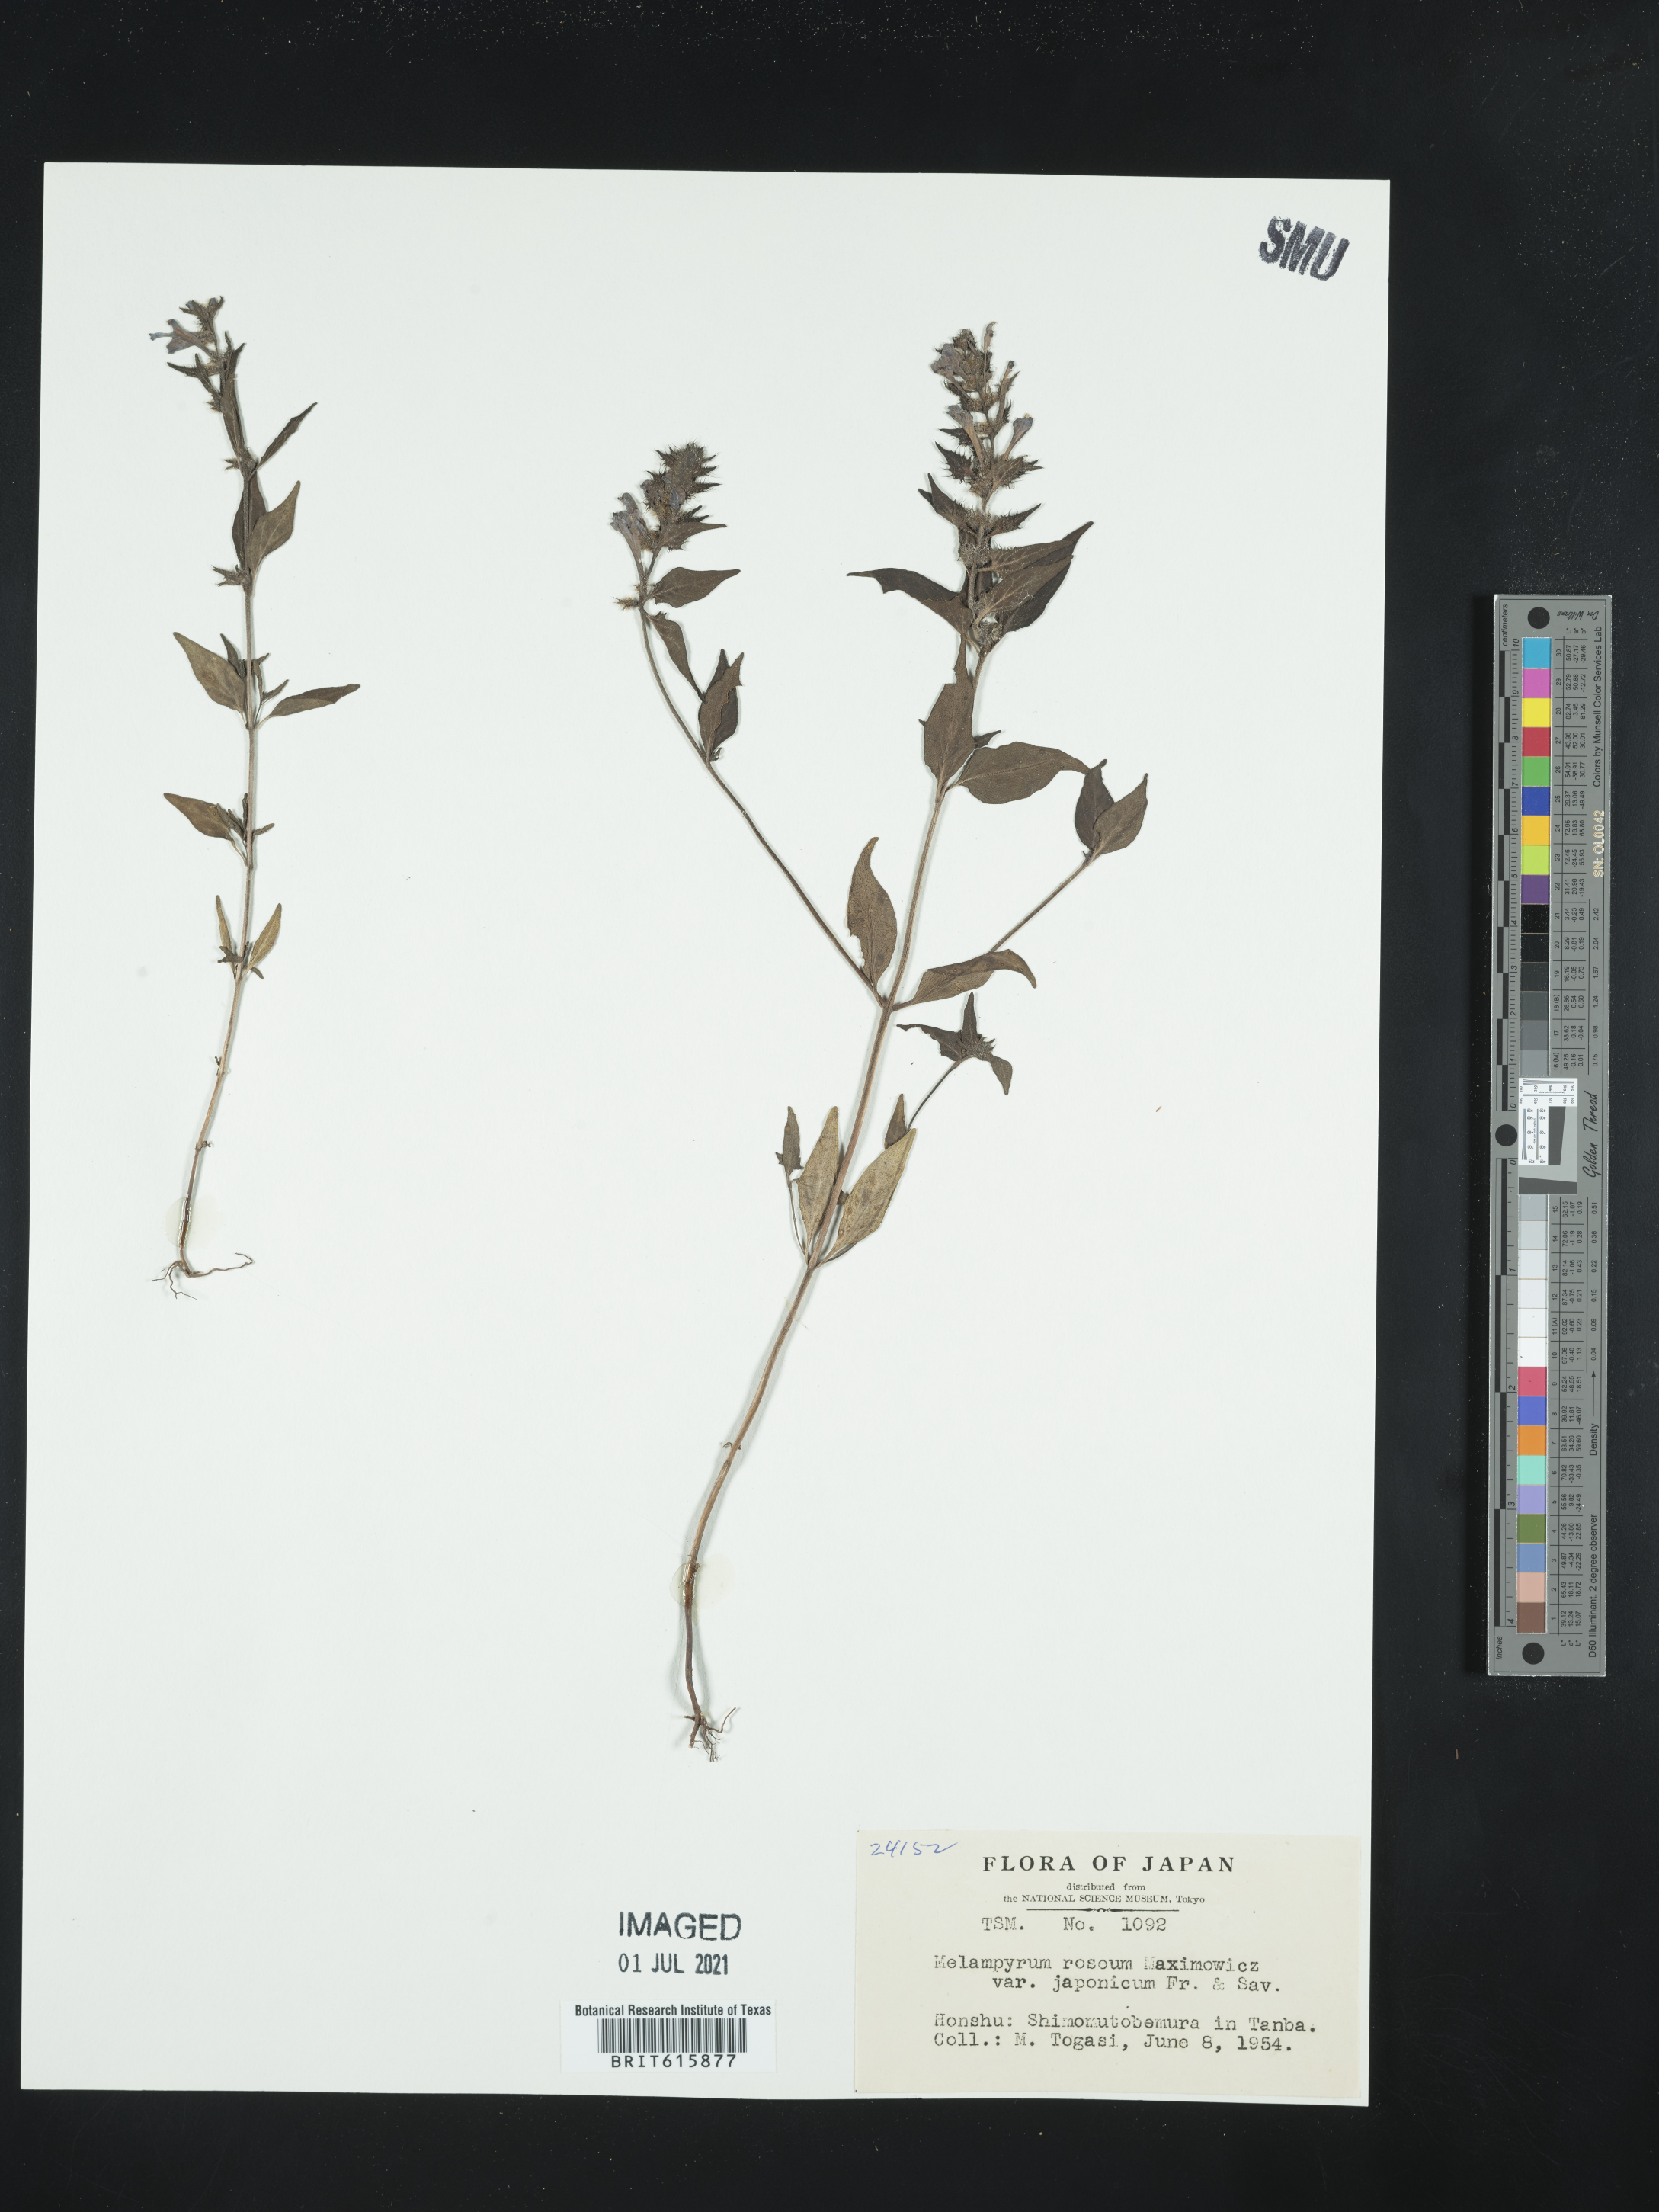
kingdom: Plantae
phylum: Tracheophyta
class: Magnoliopsida
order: Lamiales
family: Orobanchaceae
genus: Melampyrum
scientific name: Melampyrum roseum
